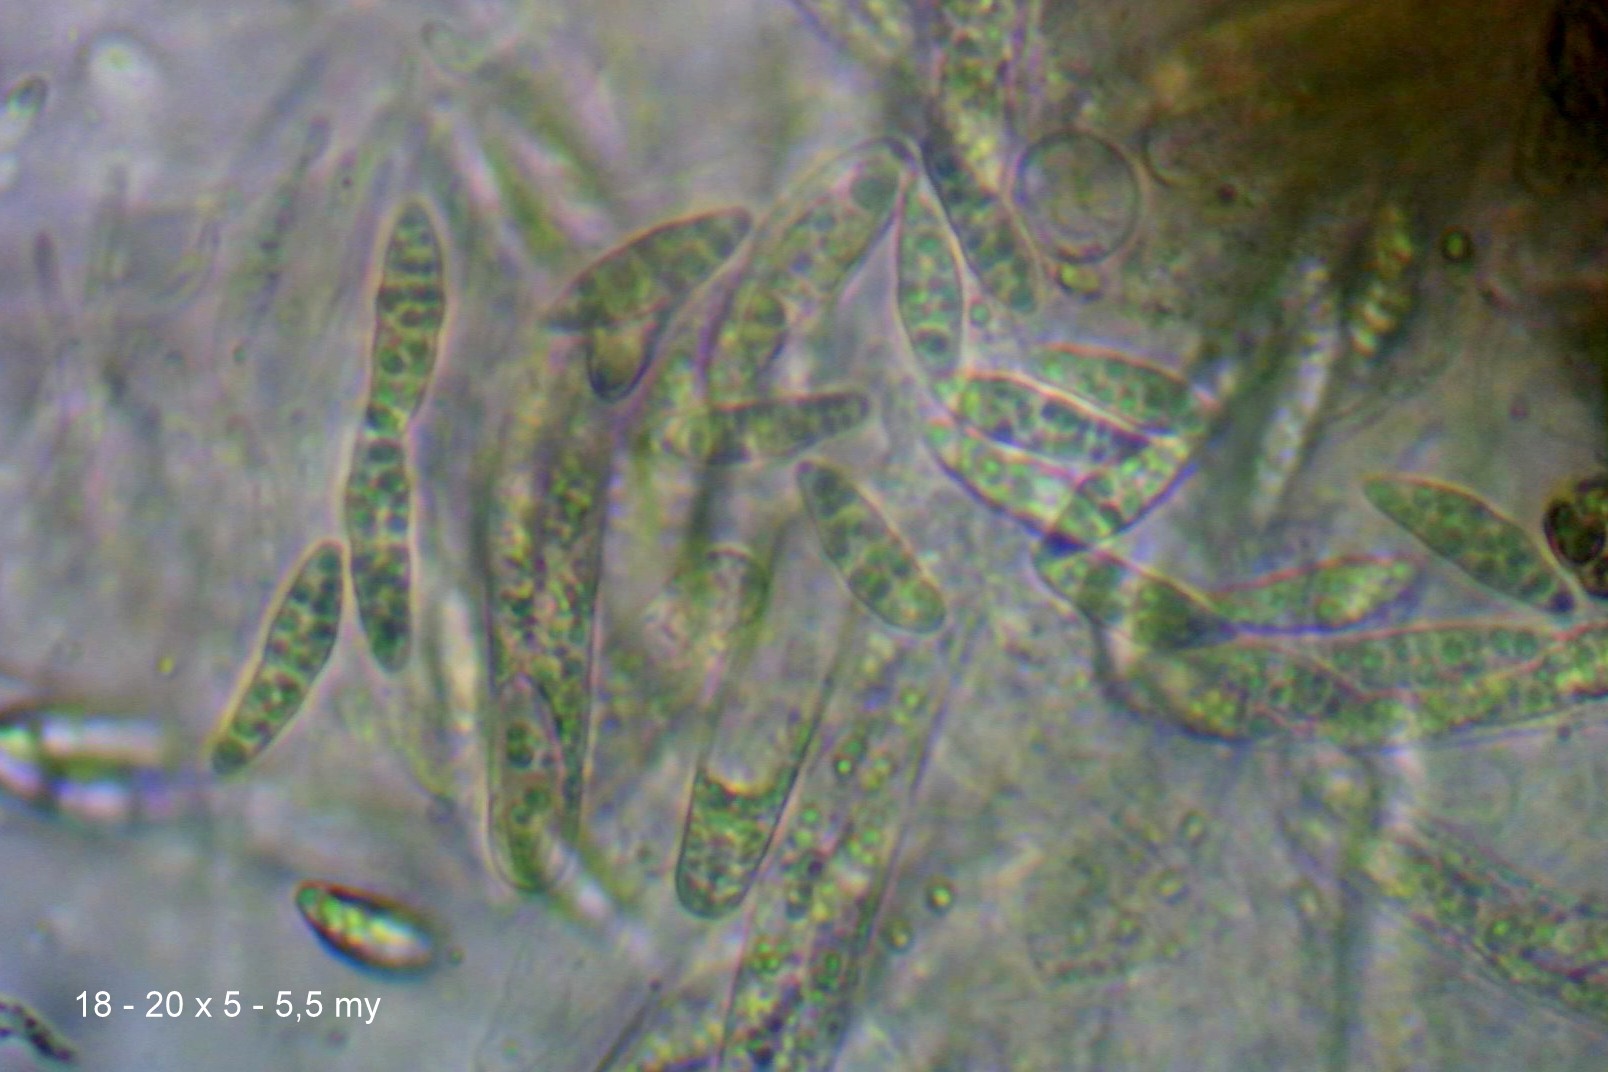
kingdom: Fungi
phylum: Ascomycota
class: Sordariomycetes
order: Chaetosphaeriales
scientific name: Chaetosphaeriales
